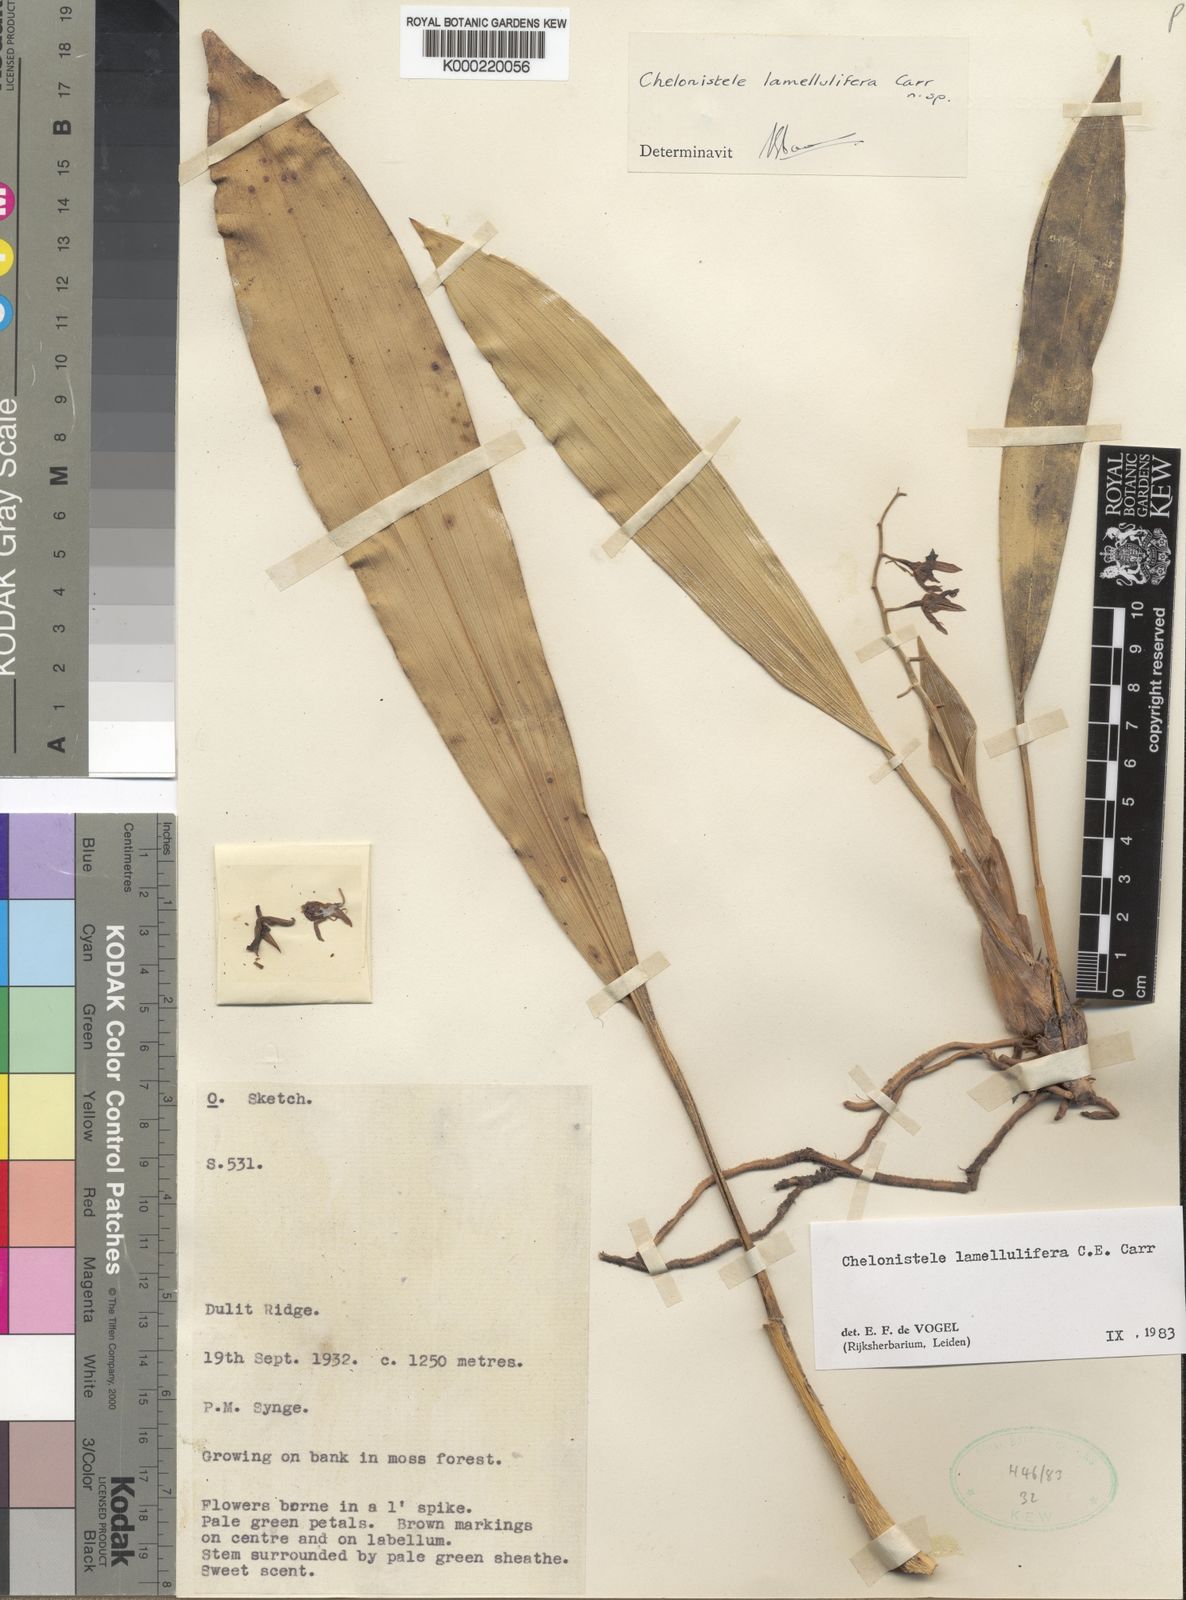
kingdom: Plantae
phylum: Tracheophyta
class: Liliopsida
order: Asparagales
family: Orchidaceae
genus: Coelogyne
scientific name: Coelogyne lamellulifera
